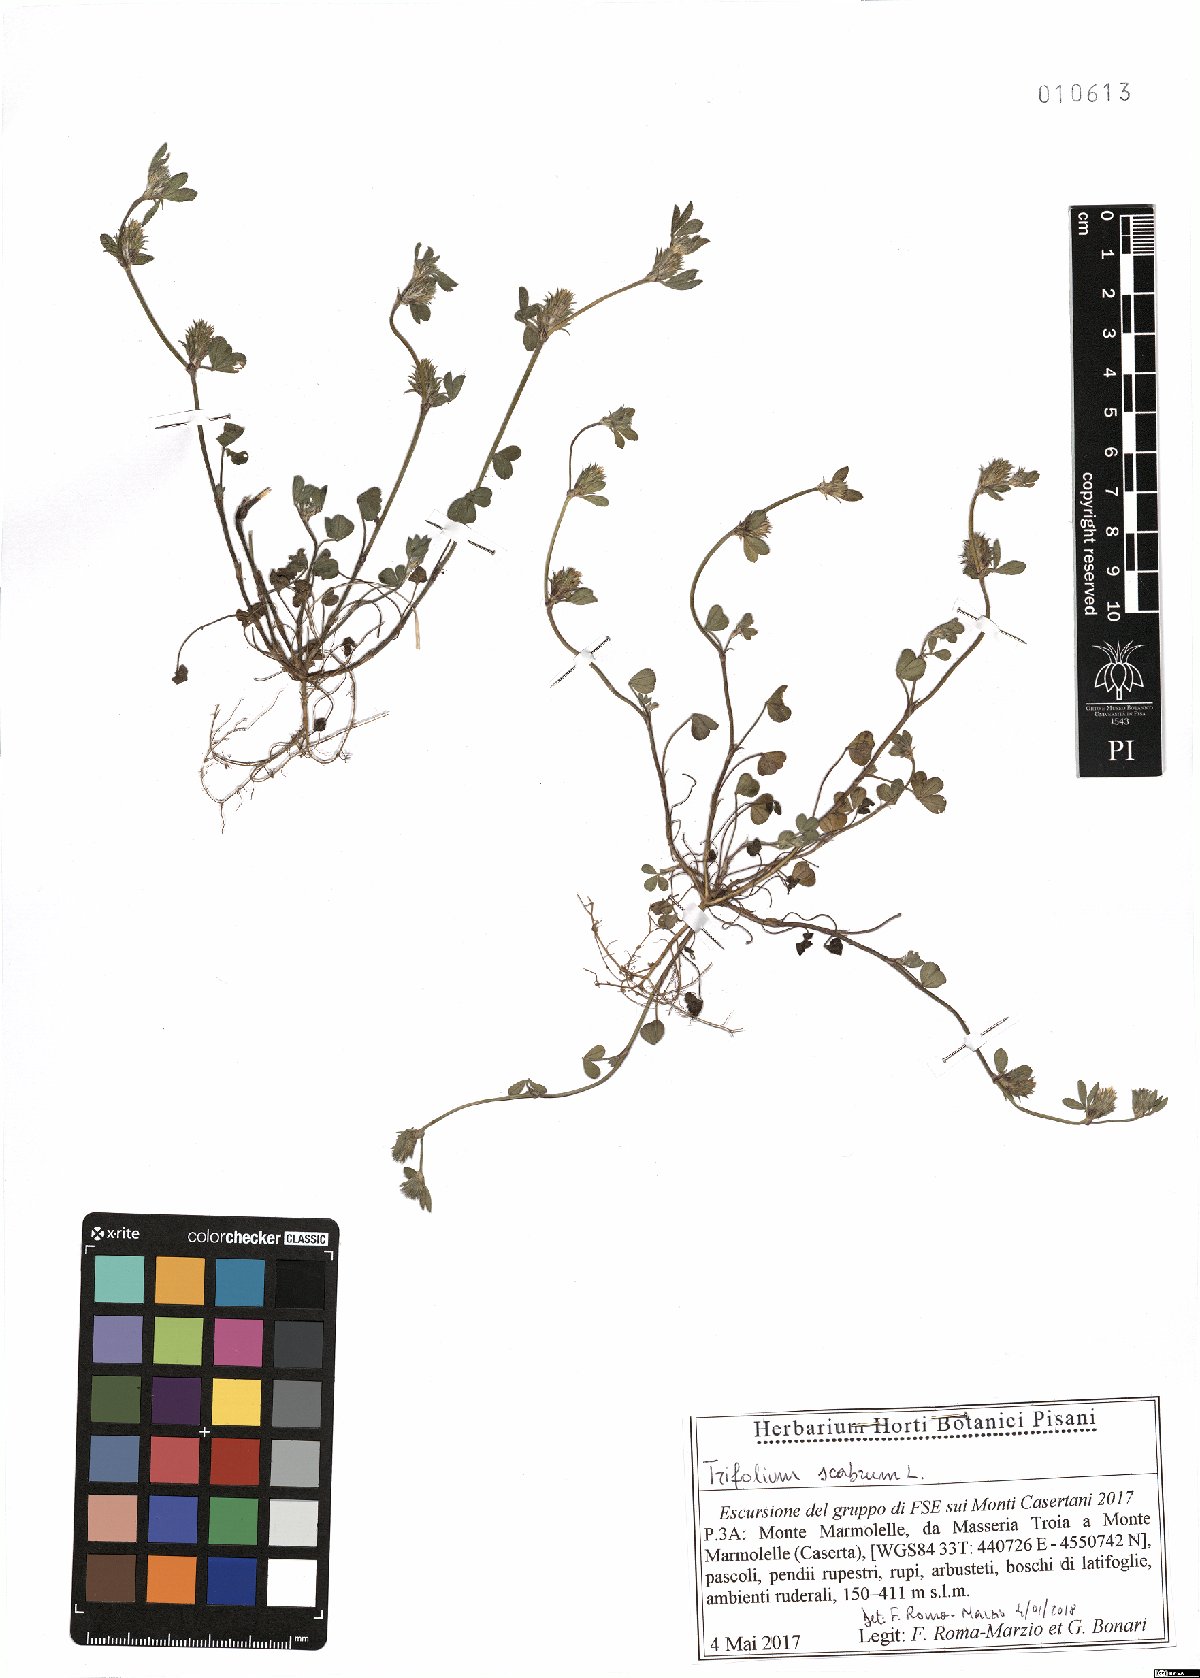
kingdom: Plantae
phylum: Tracheophyta
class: Magnoliopsida
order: Fabales
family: Fabaceae
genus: Trifolium
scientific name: Trifolium scabrum
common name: Rough clover
